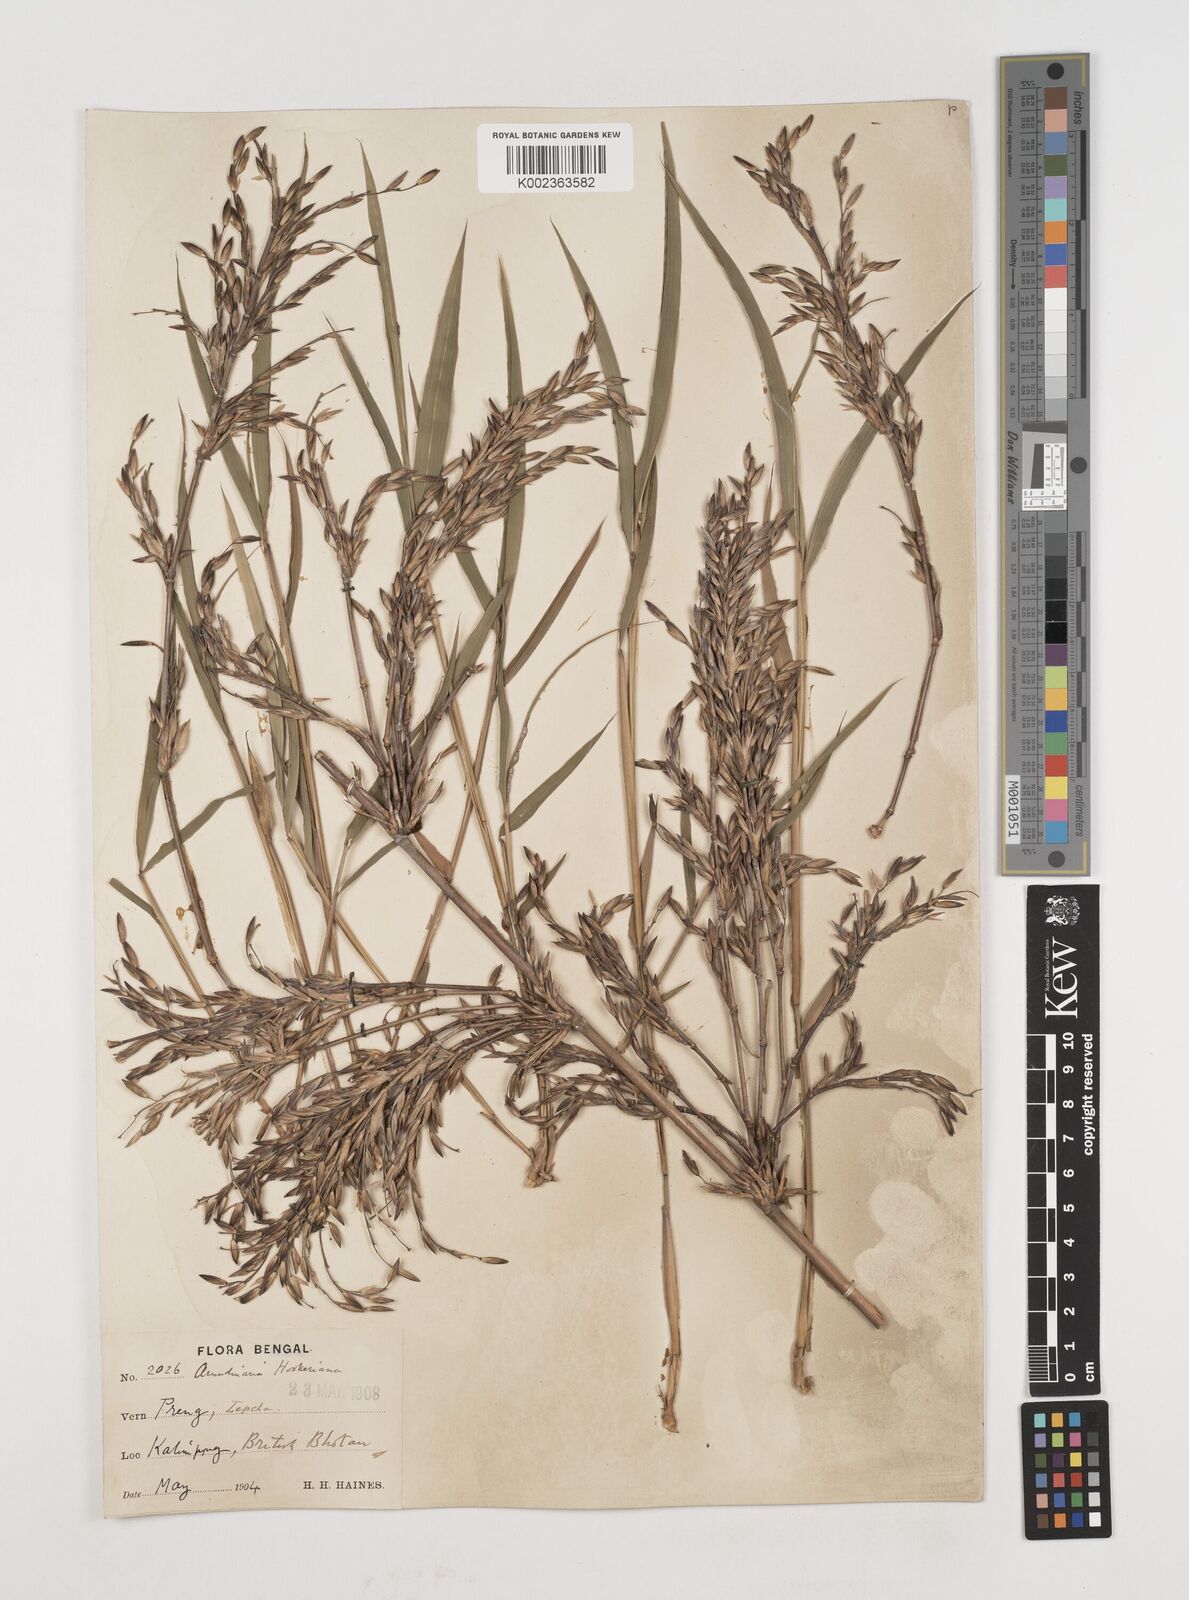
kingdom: Plantae
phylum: Tracheophyta
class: Liliopsida
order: Poales
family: Poaceae
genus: Himalayacalamus
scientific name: Himalayacalamus hookerianus
